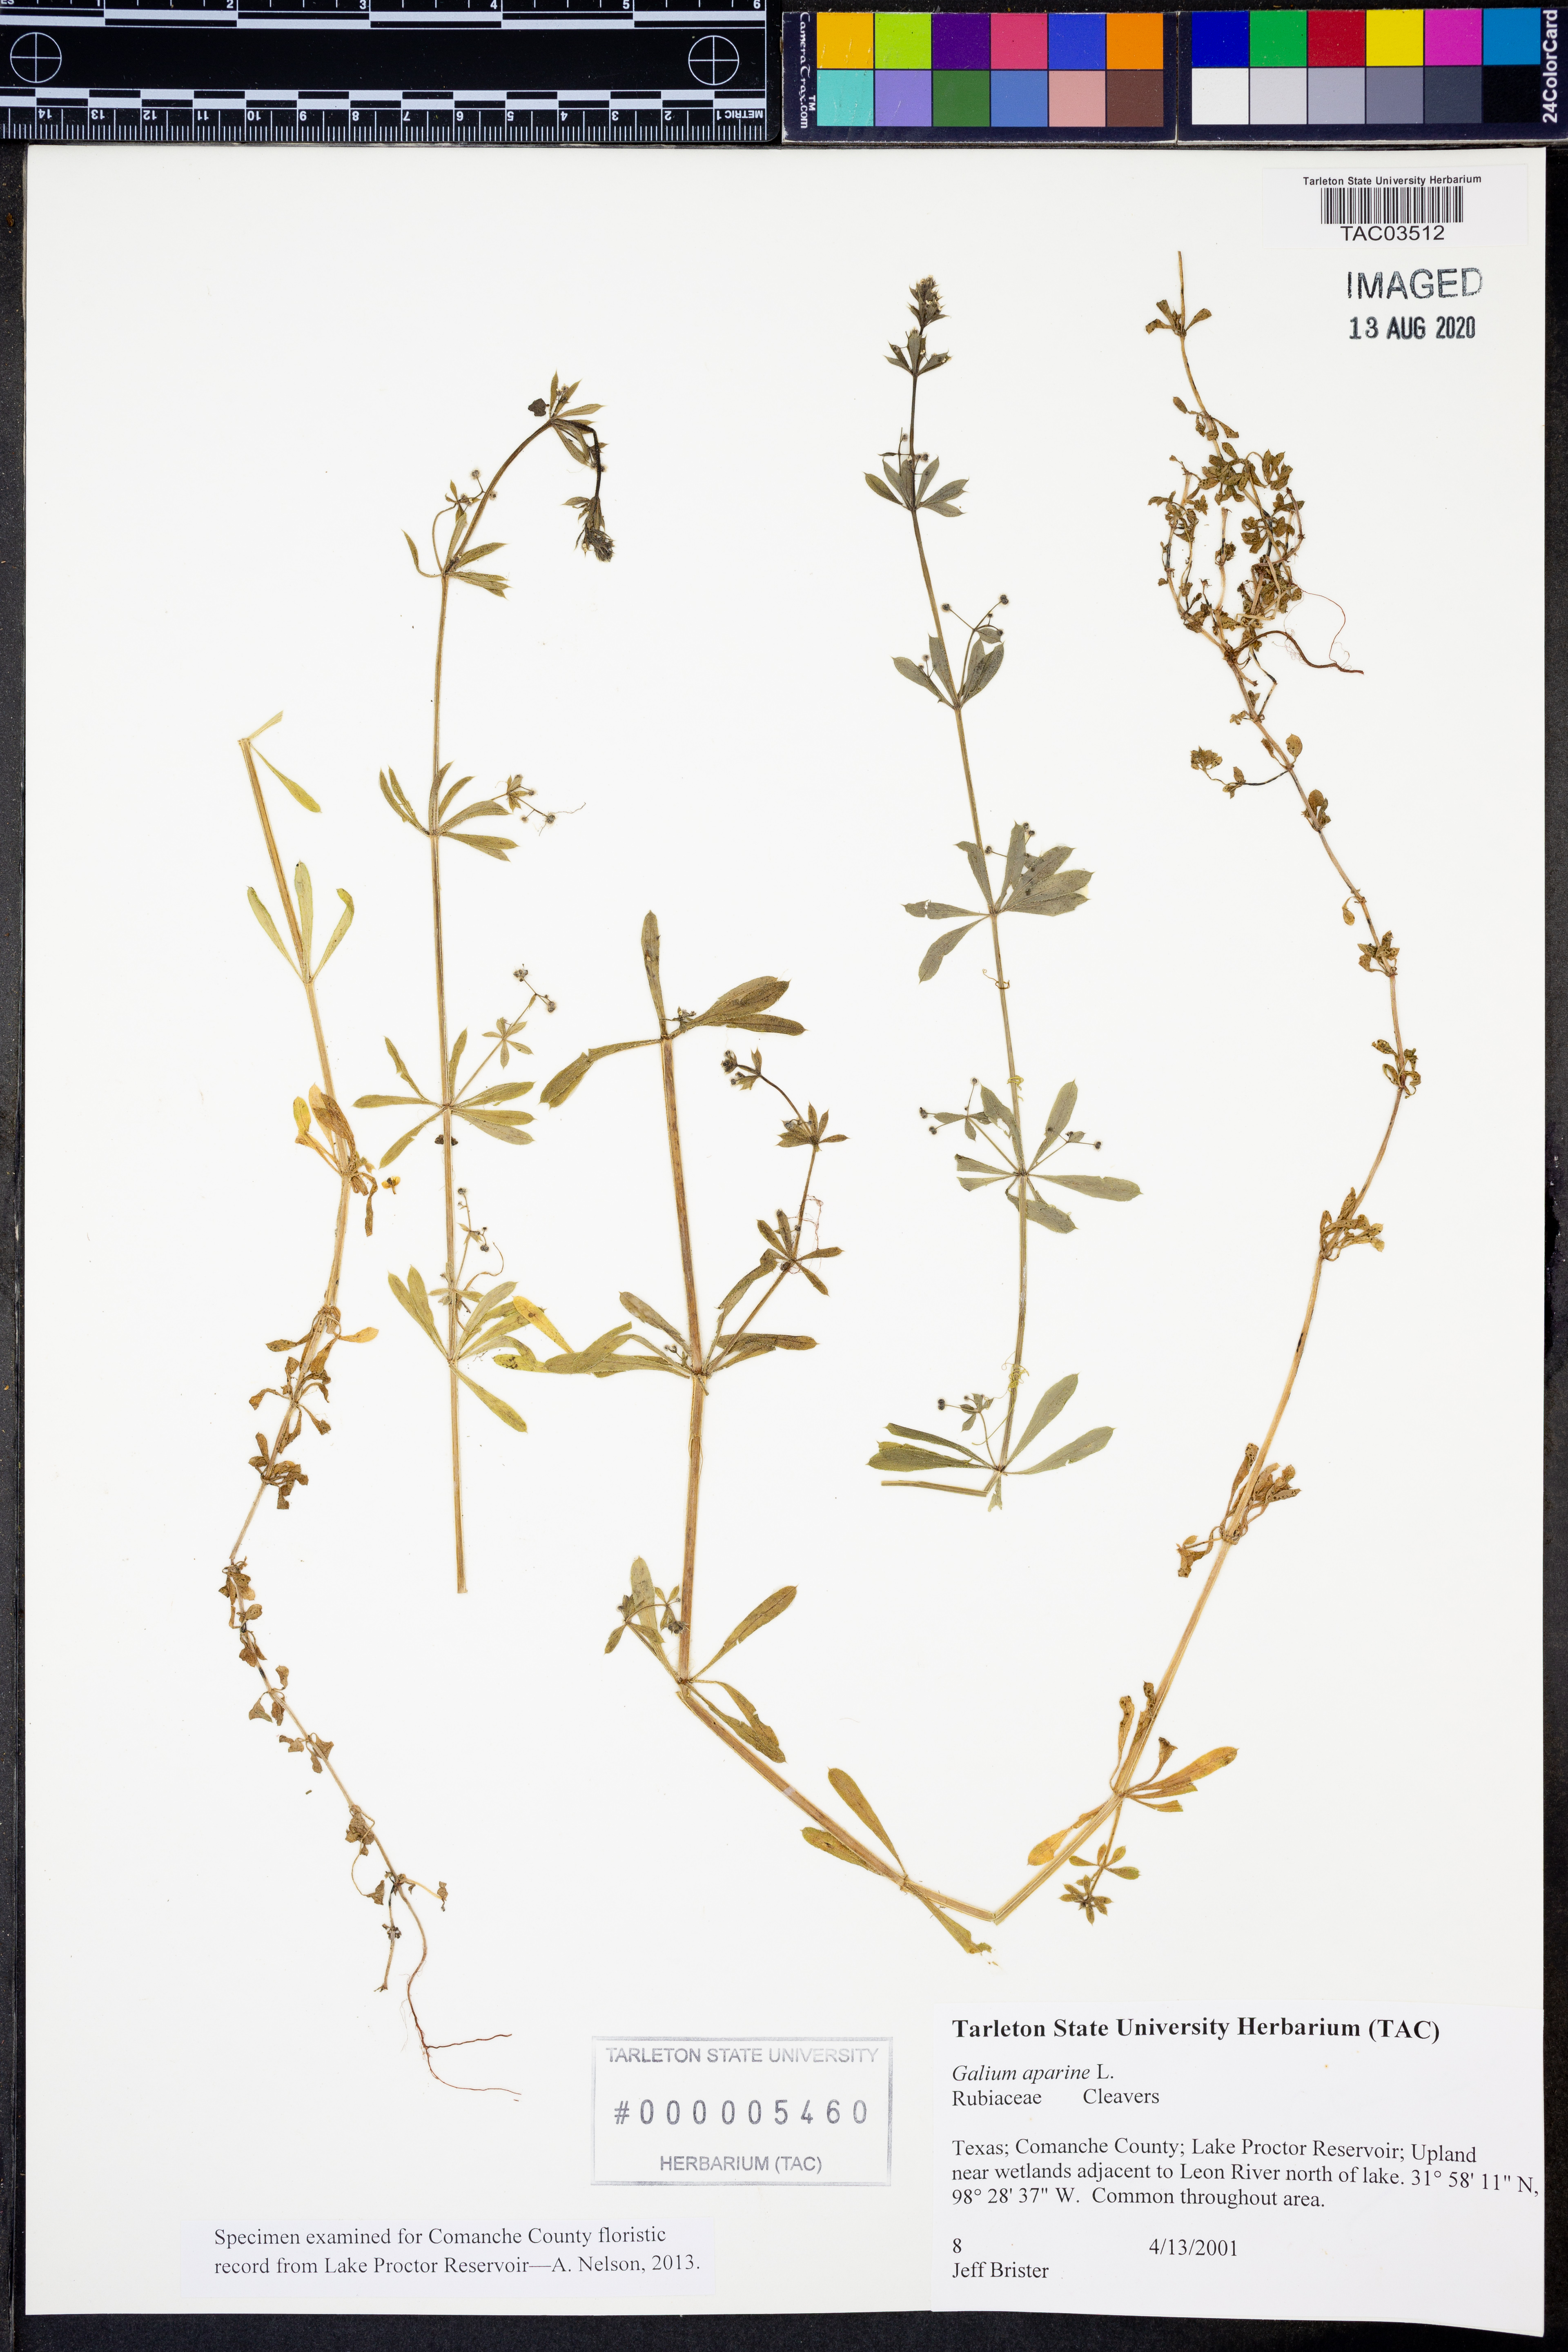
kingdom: Plantae
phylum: Tracheophyta
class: Magnoliopsida
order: Gentianales
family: Rubiaceae
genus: Galium
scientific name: Galium aparine
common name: Cleavers
